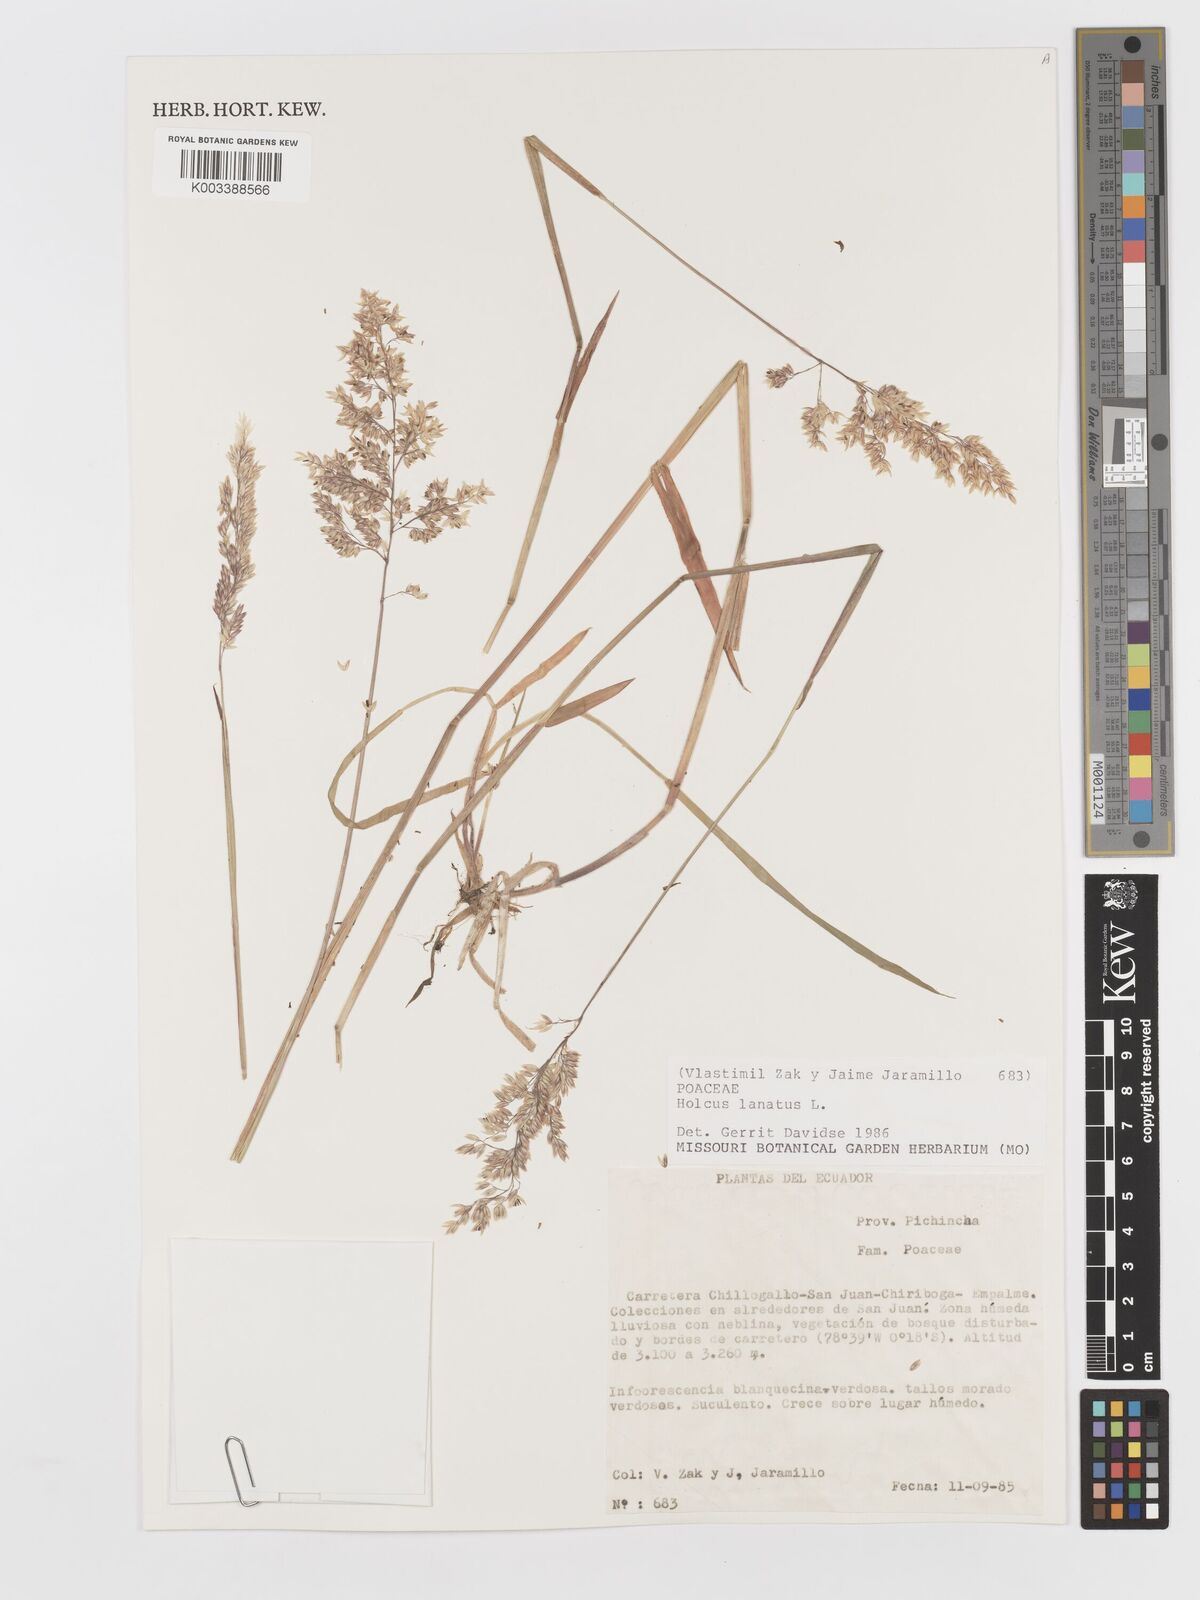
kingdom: Plantae
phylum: Tracheophyta
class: Liliopsida
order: Poales
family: Poaceae
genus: Holcus
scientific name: Holcus lanatus
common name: Yorkshire-fog
